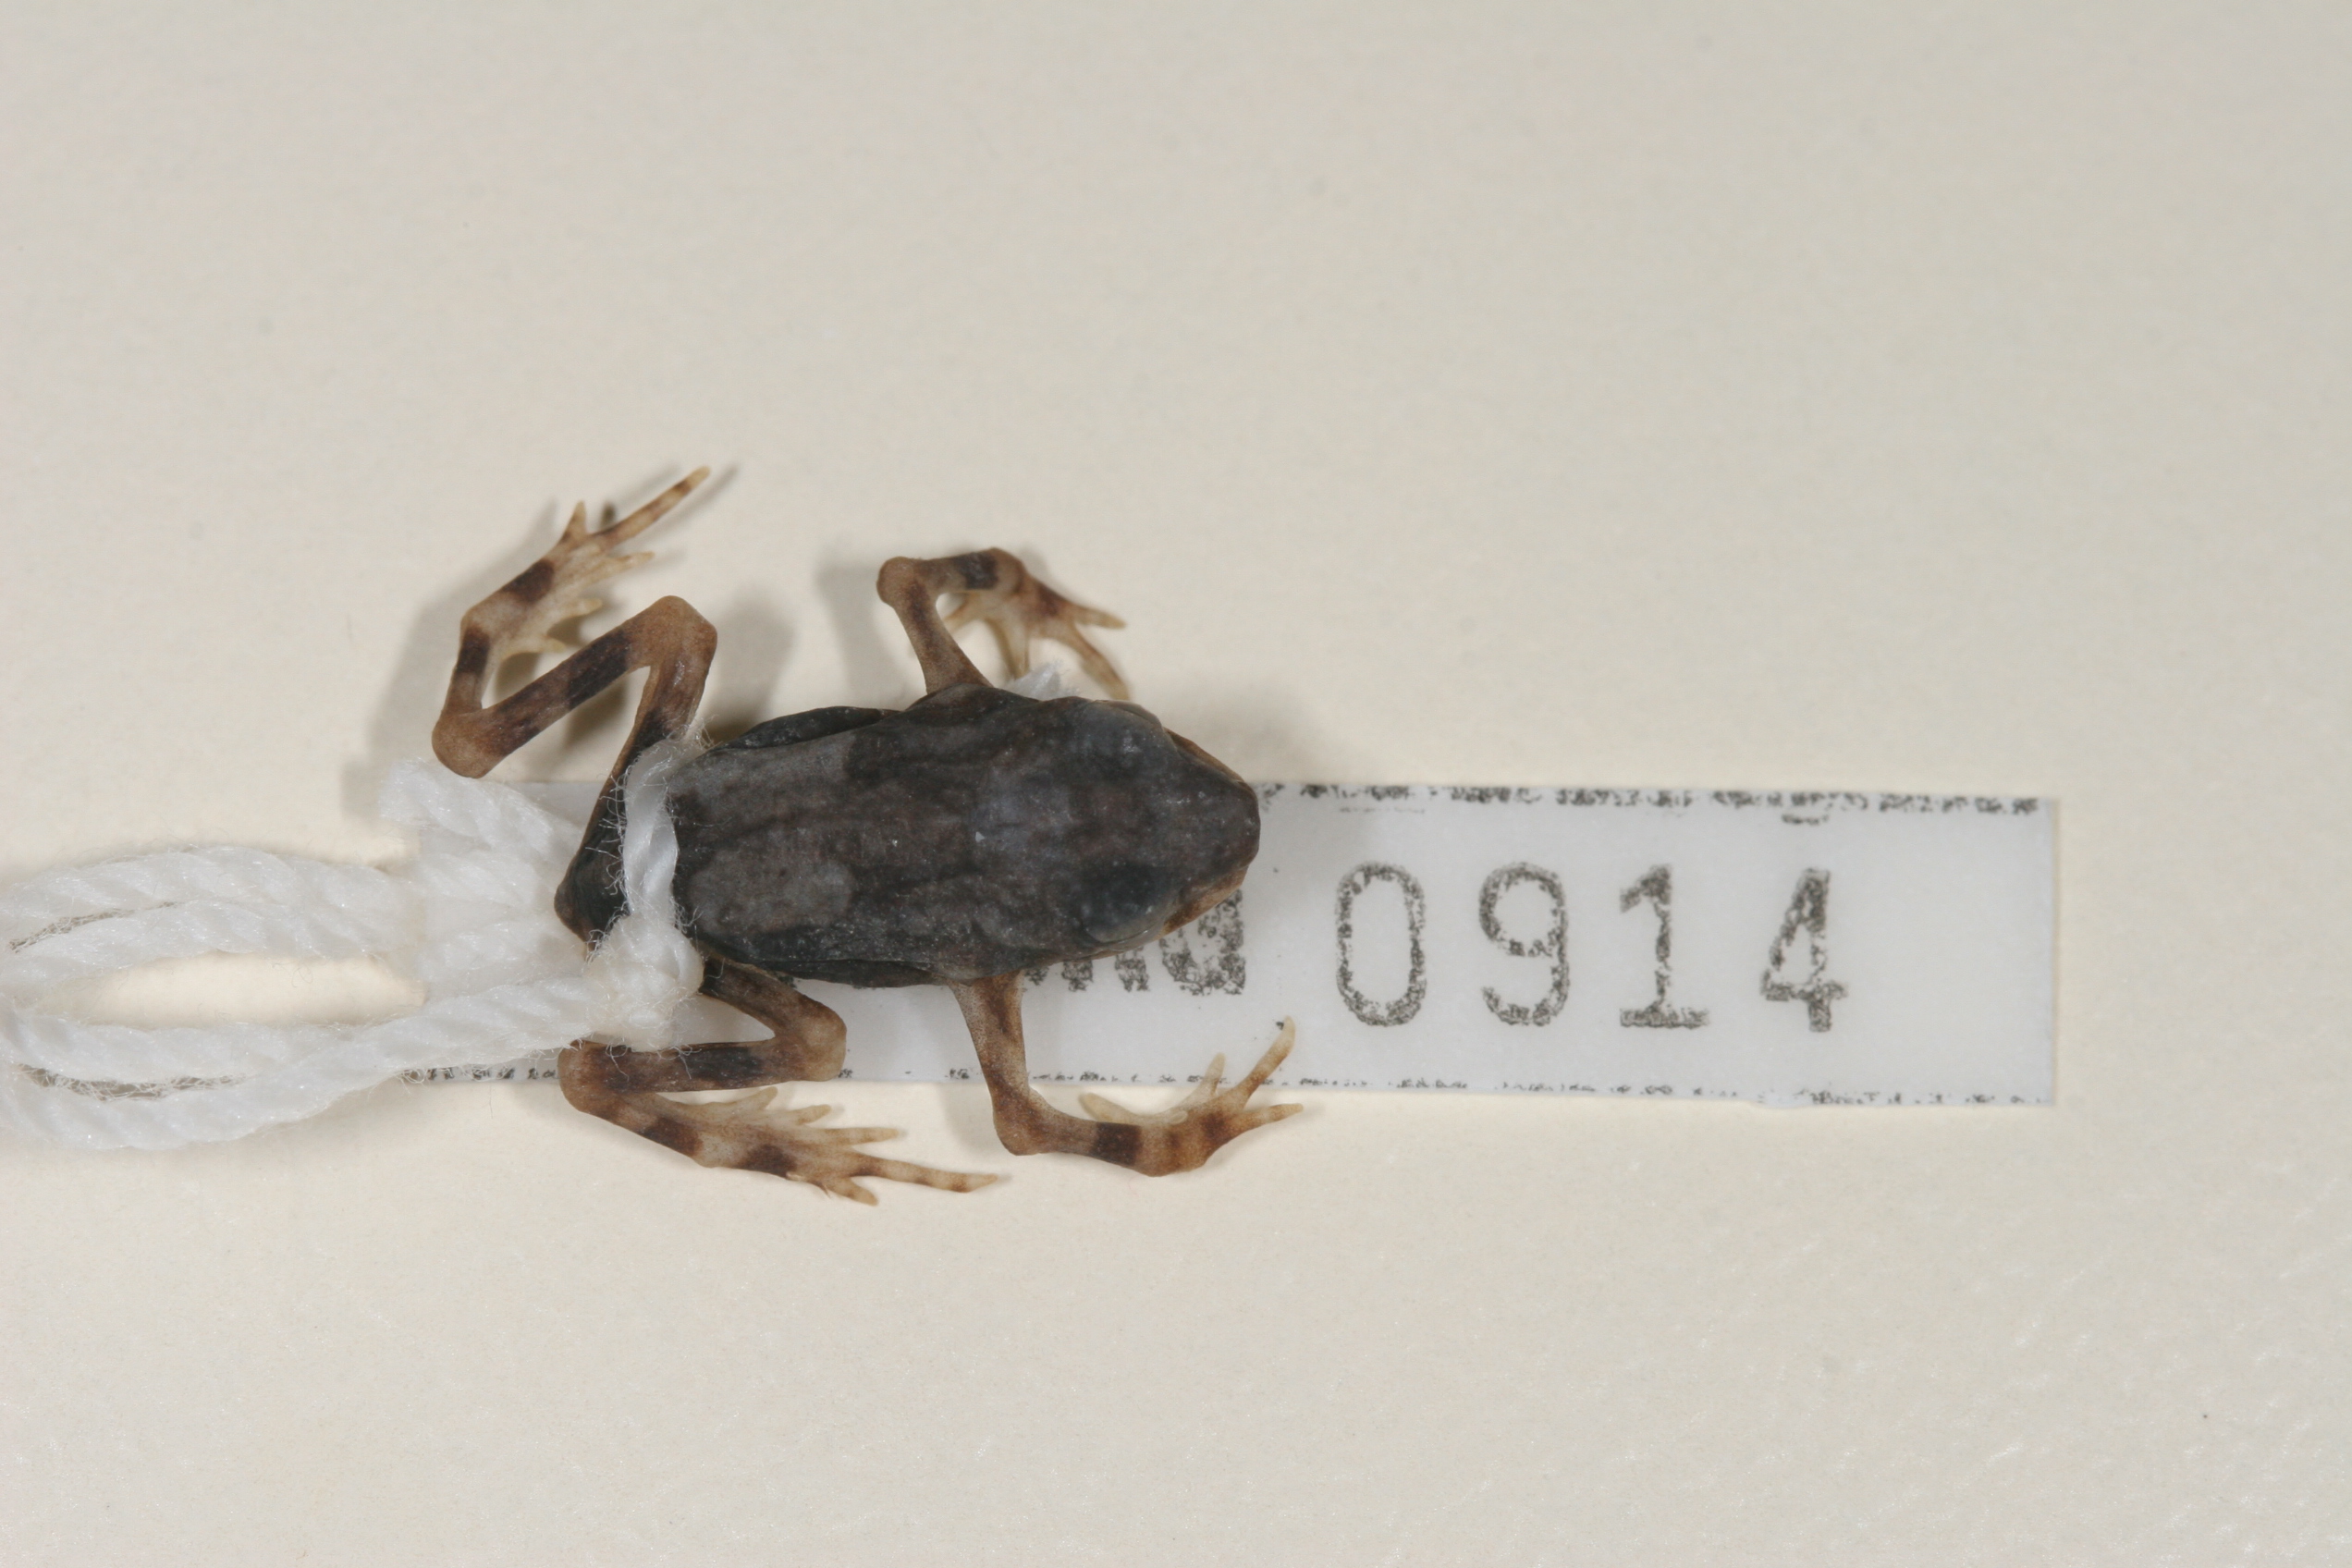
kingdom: Animalia
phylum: Chordata
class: Amphibia
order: Anura
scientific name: Anura
